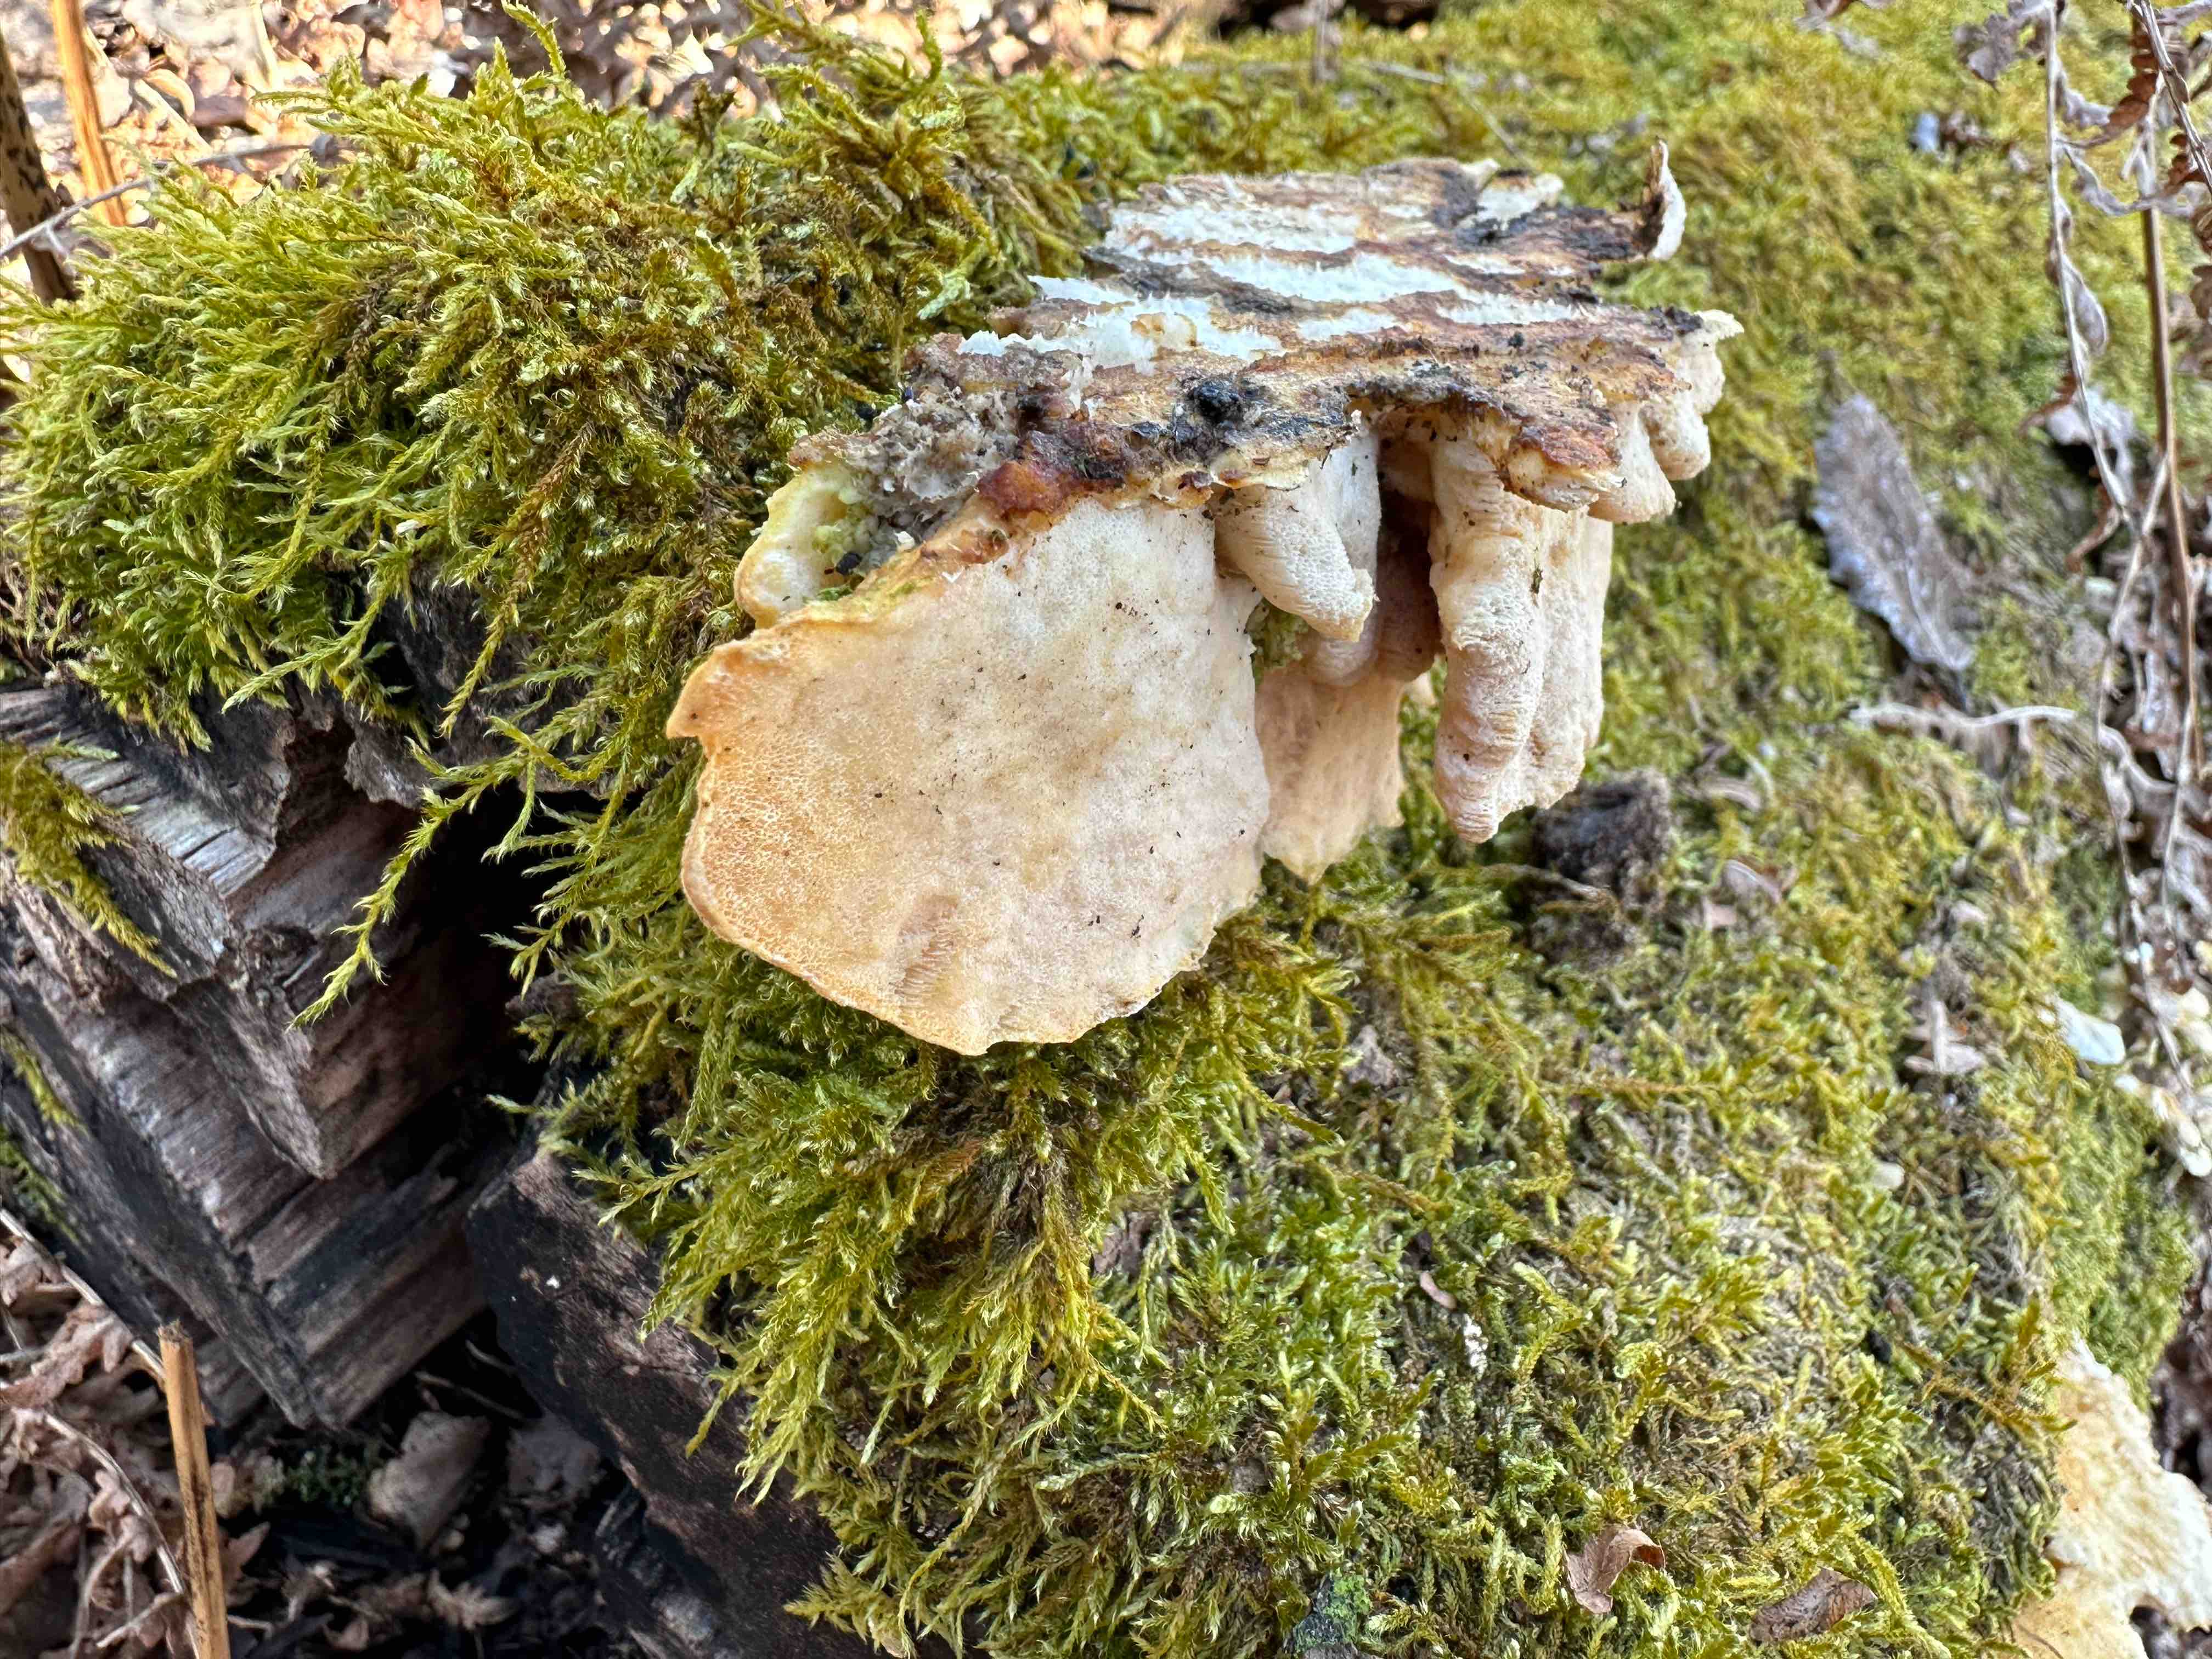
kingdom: Fungi
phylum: Basidiomycota
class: Agaricomycetes
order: Polyporales
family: Polyporaceae
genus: Trametes
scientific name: Trametes ochracea
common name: bæltet læderporesvamp
